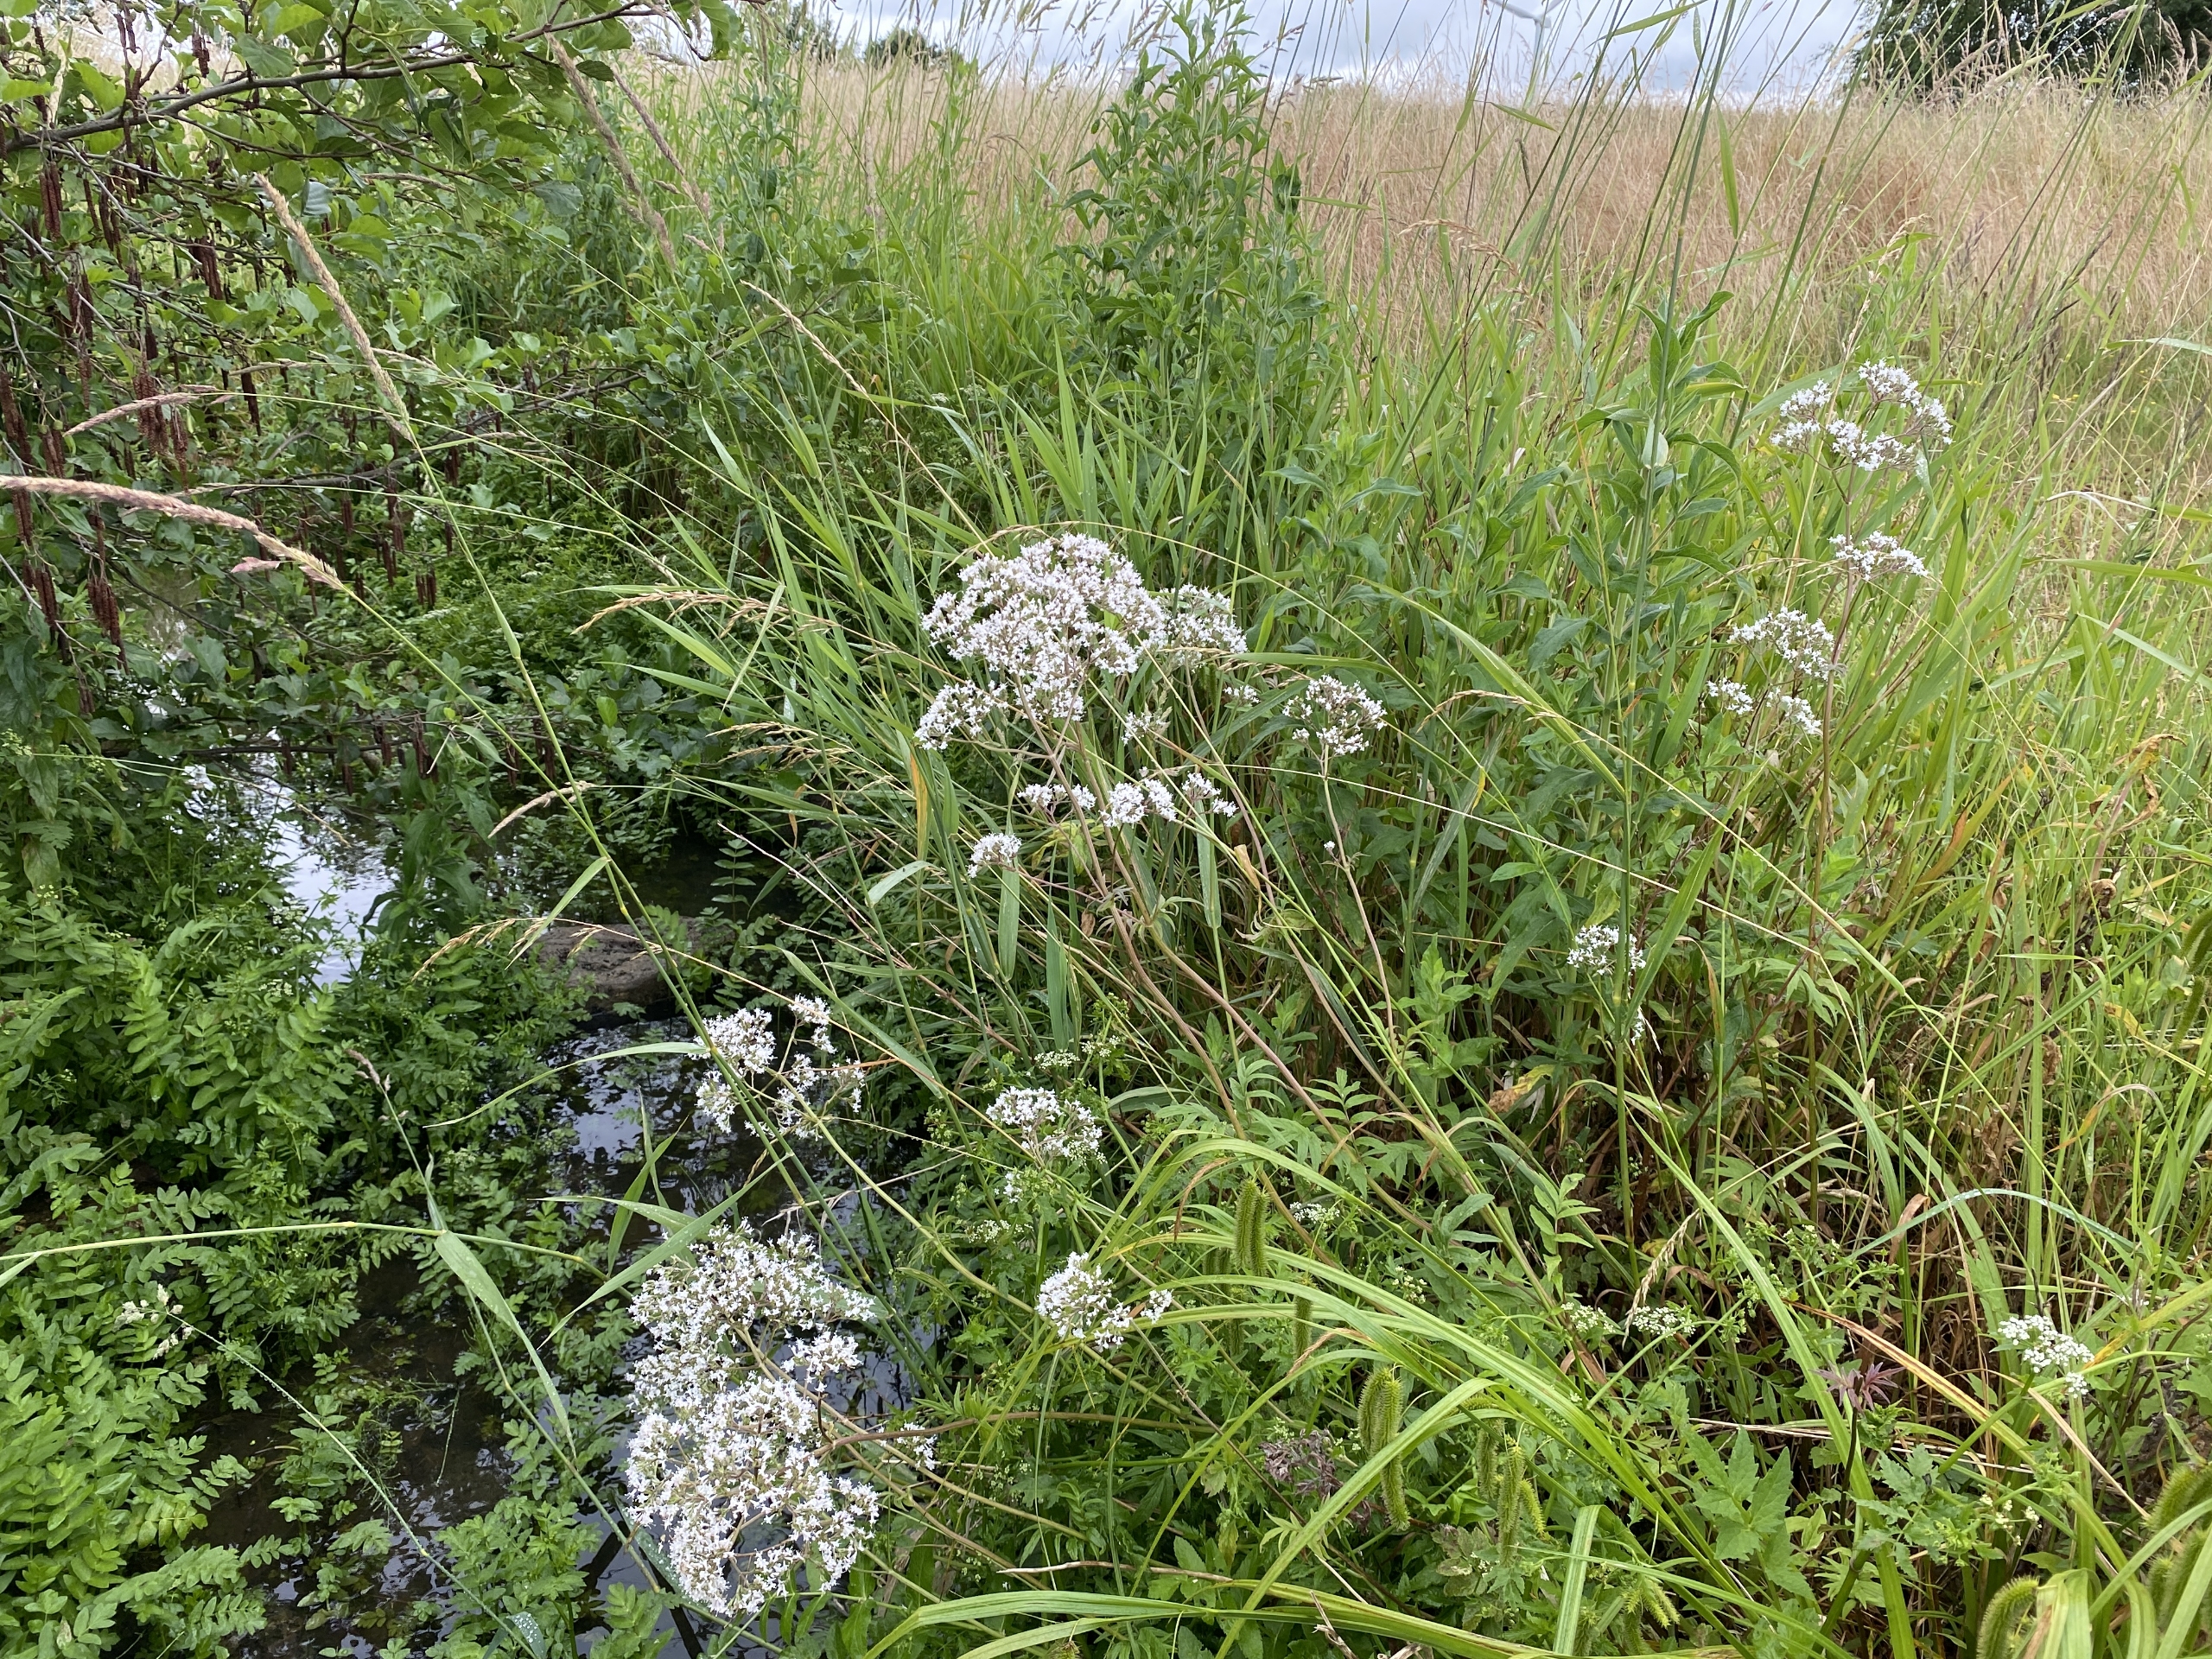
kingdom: Plantae
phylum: Tracheophyta
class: Magnoliopsida
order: Dipsacales
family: Caprifoliaceae
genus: Valeriana
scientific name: Valeriana sambucifolia
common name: Hyldebladet baldrian
